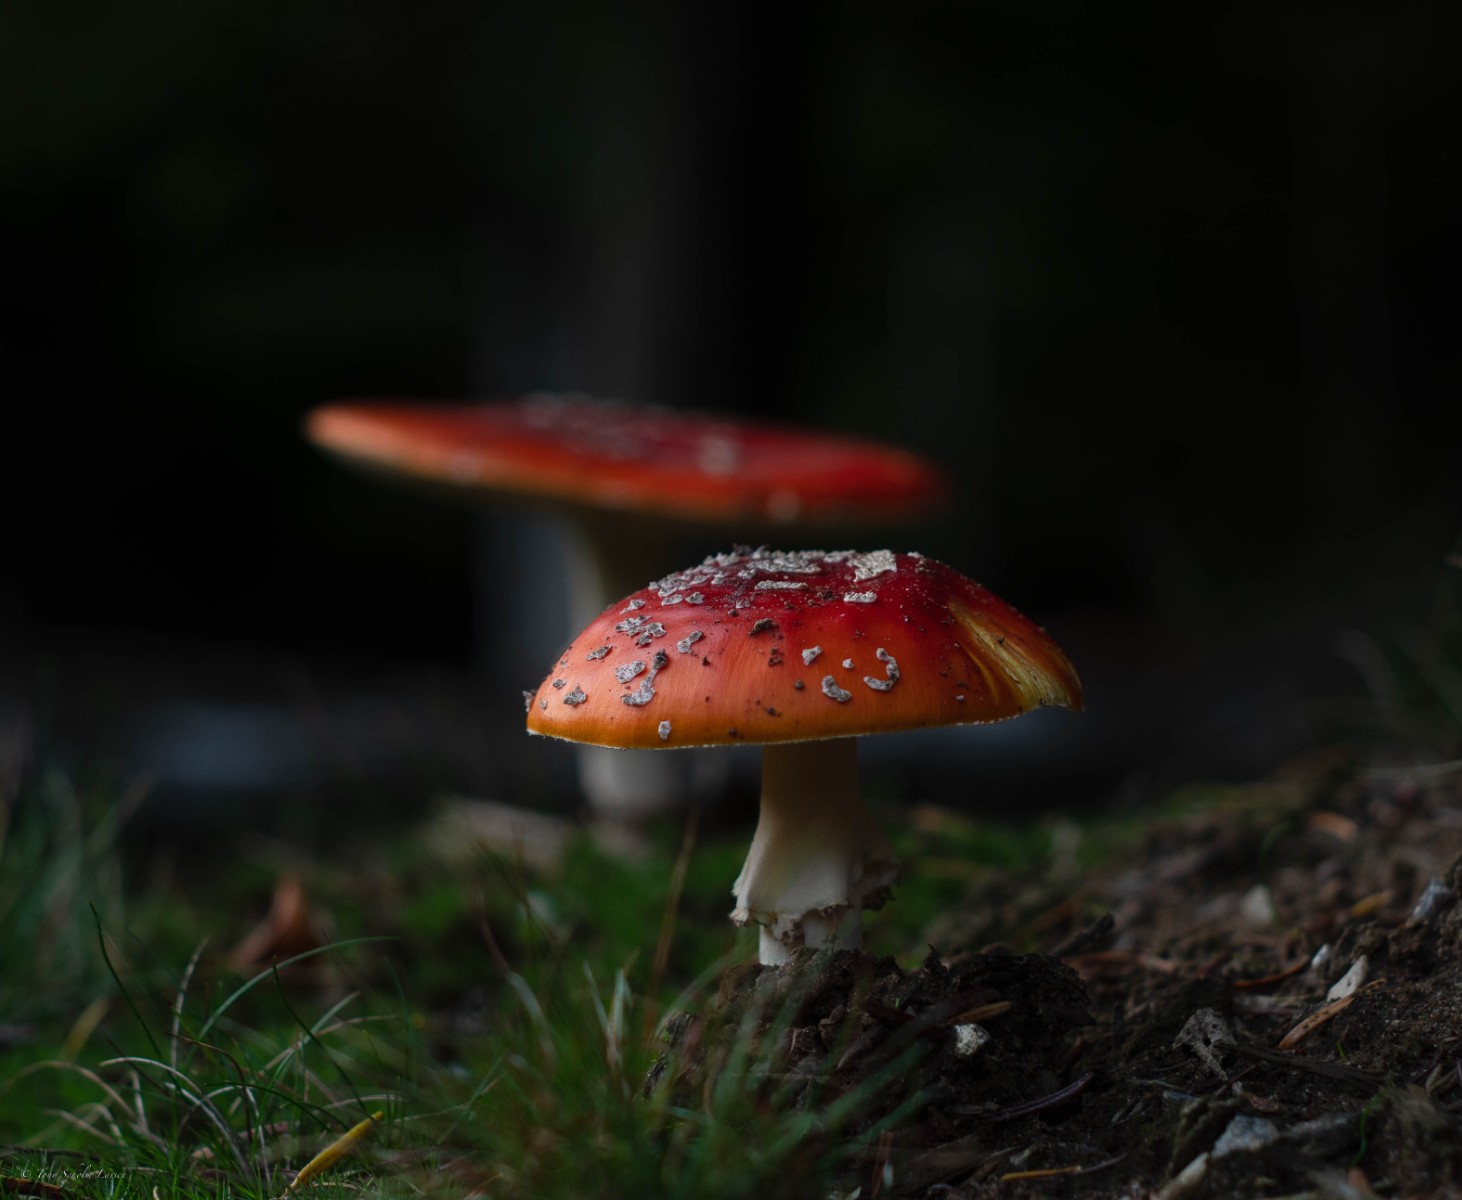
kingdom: Fungi
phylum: Basidiomycota
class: Agaricomycetes
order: Agaricales
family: Amanitaceae
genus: Amanita
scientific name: Amanita muscaria
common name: rød fluesvamp
